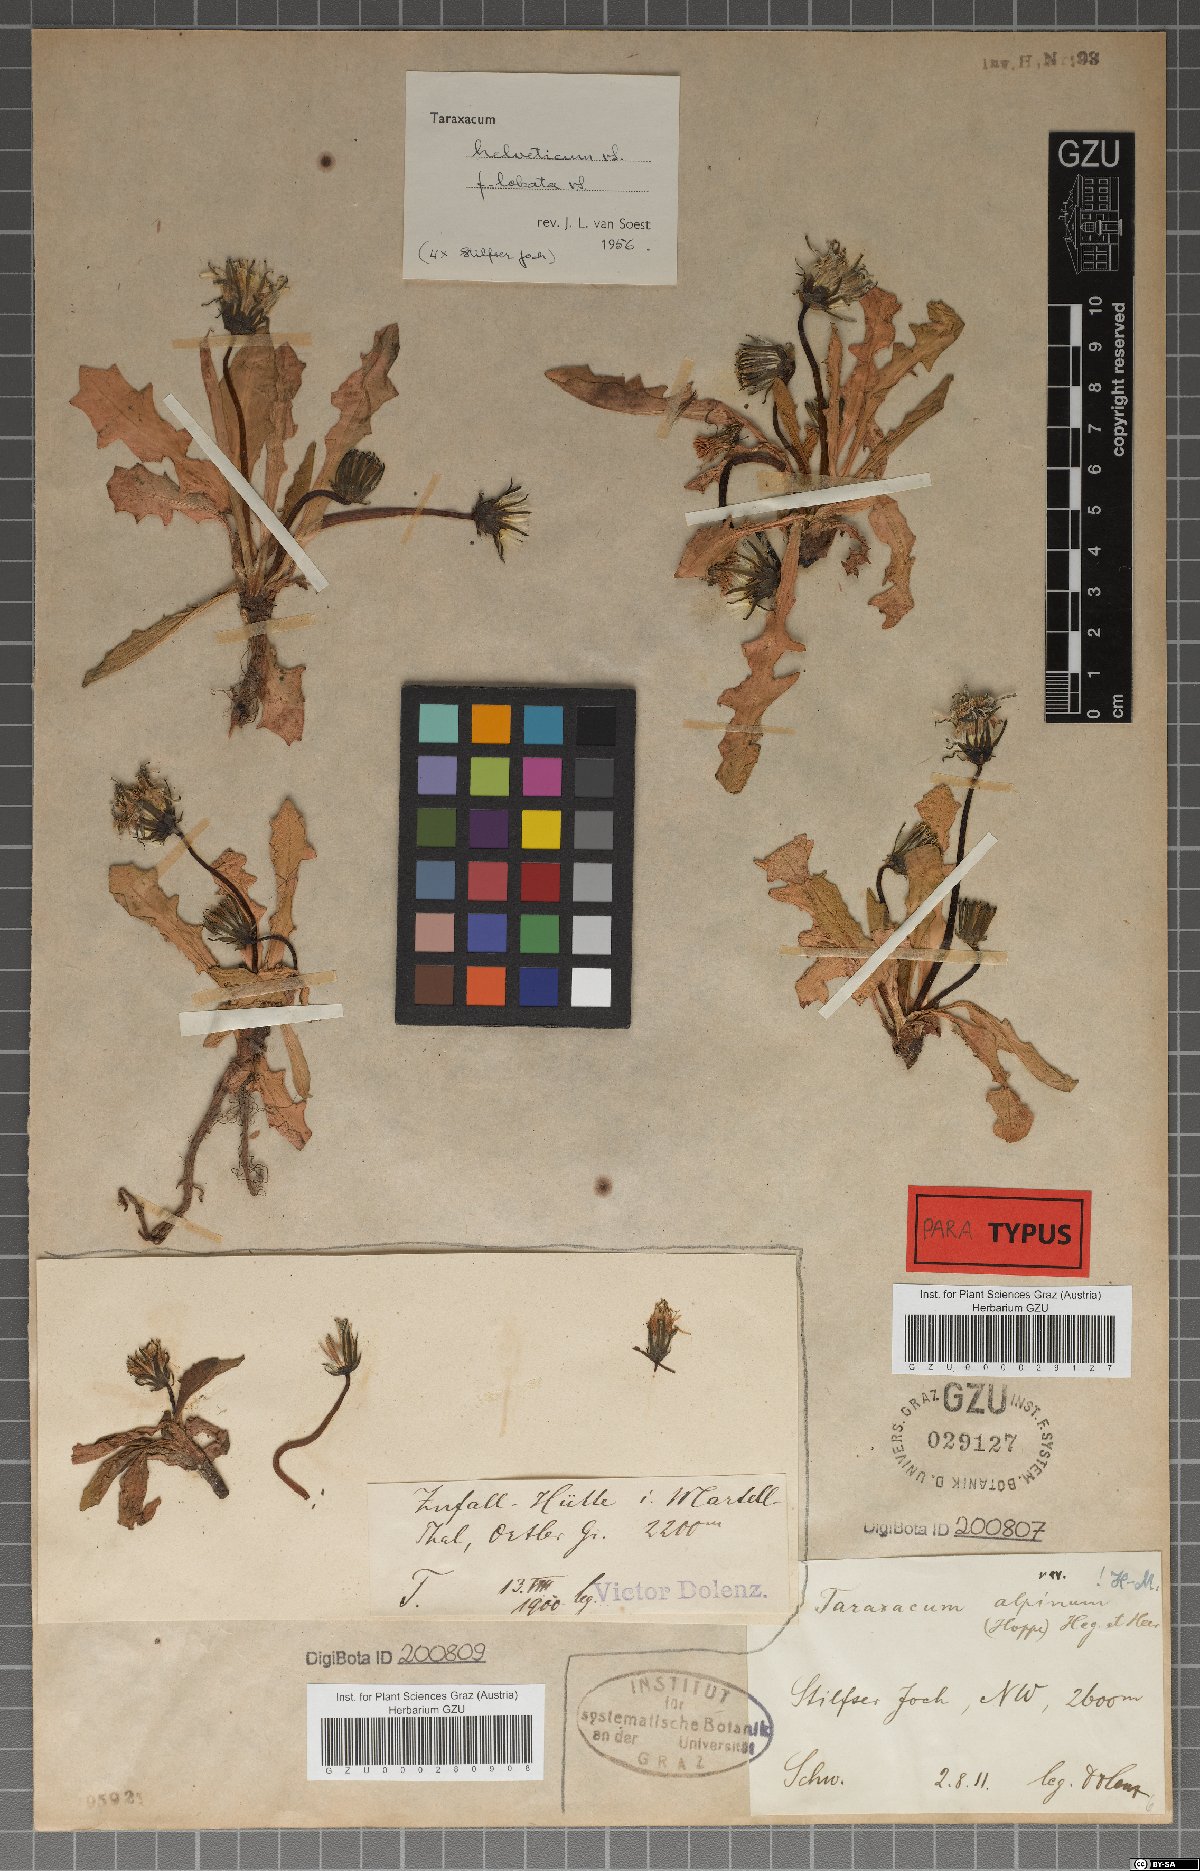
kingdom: Plantae
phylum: Tracheophyta
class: Magnoliopsida
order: Asterales
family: Asteraceae
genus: Taraxacum
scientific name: Taraxacum helveticum
